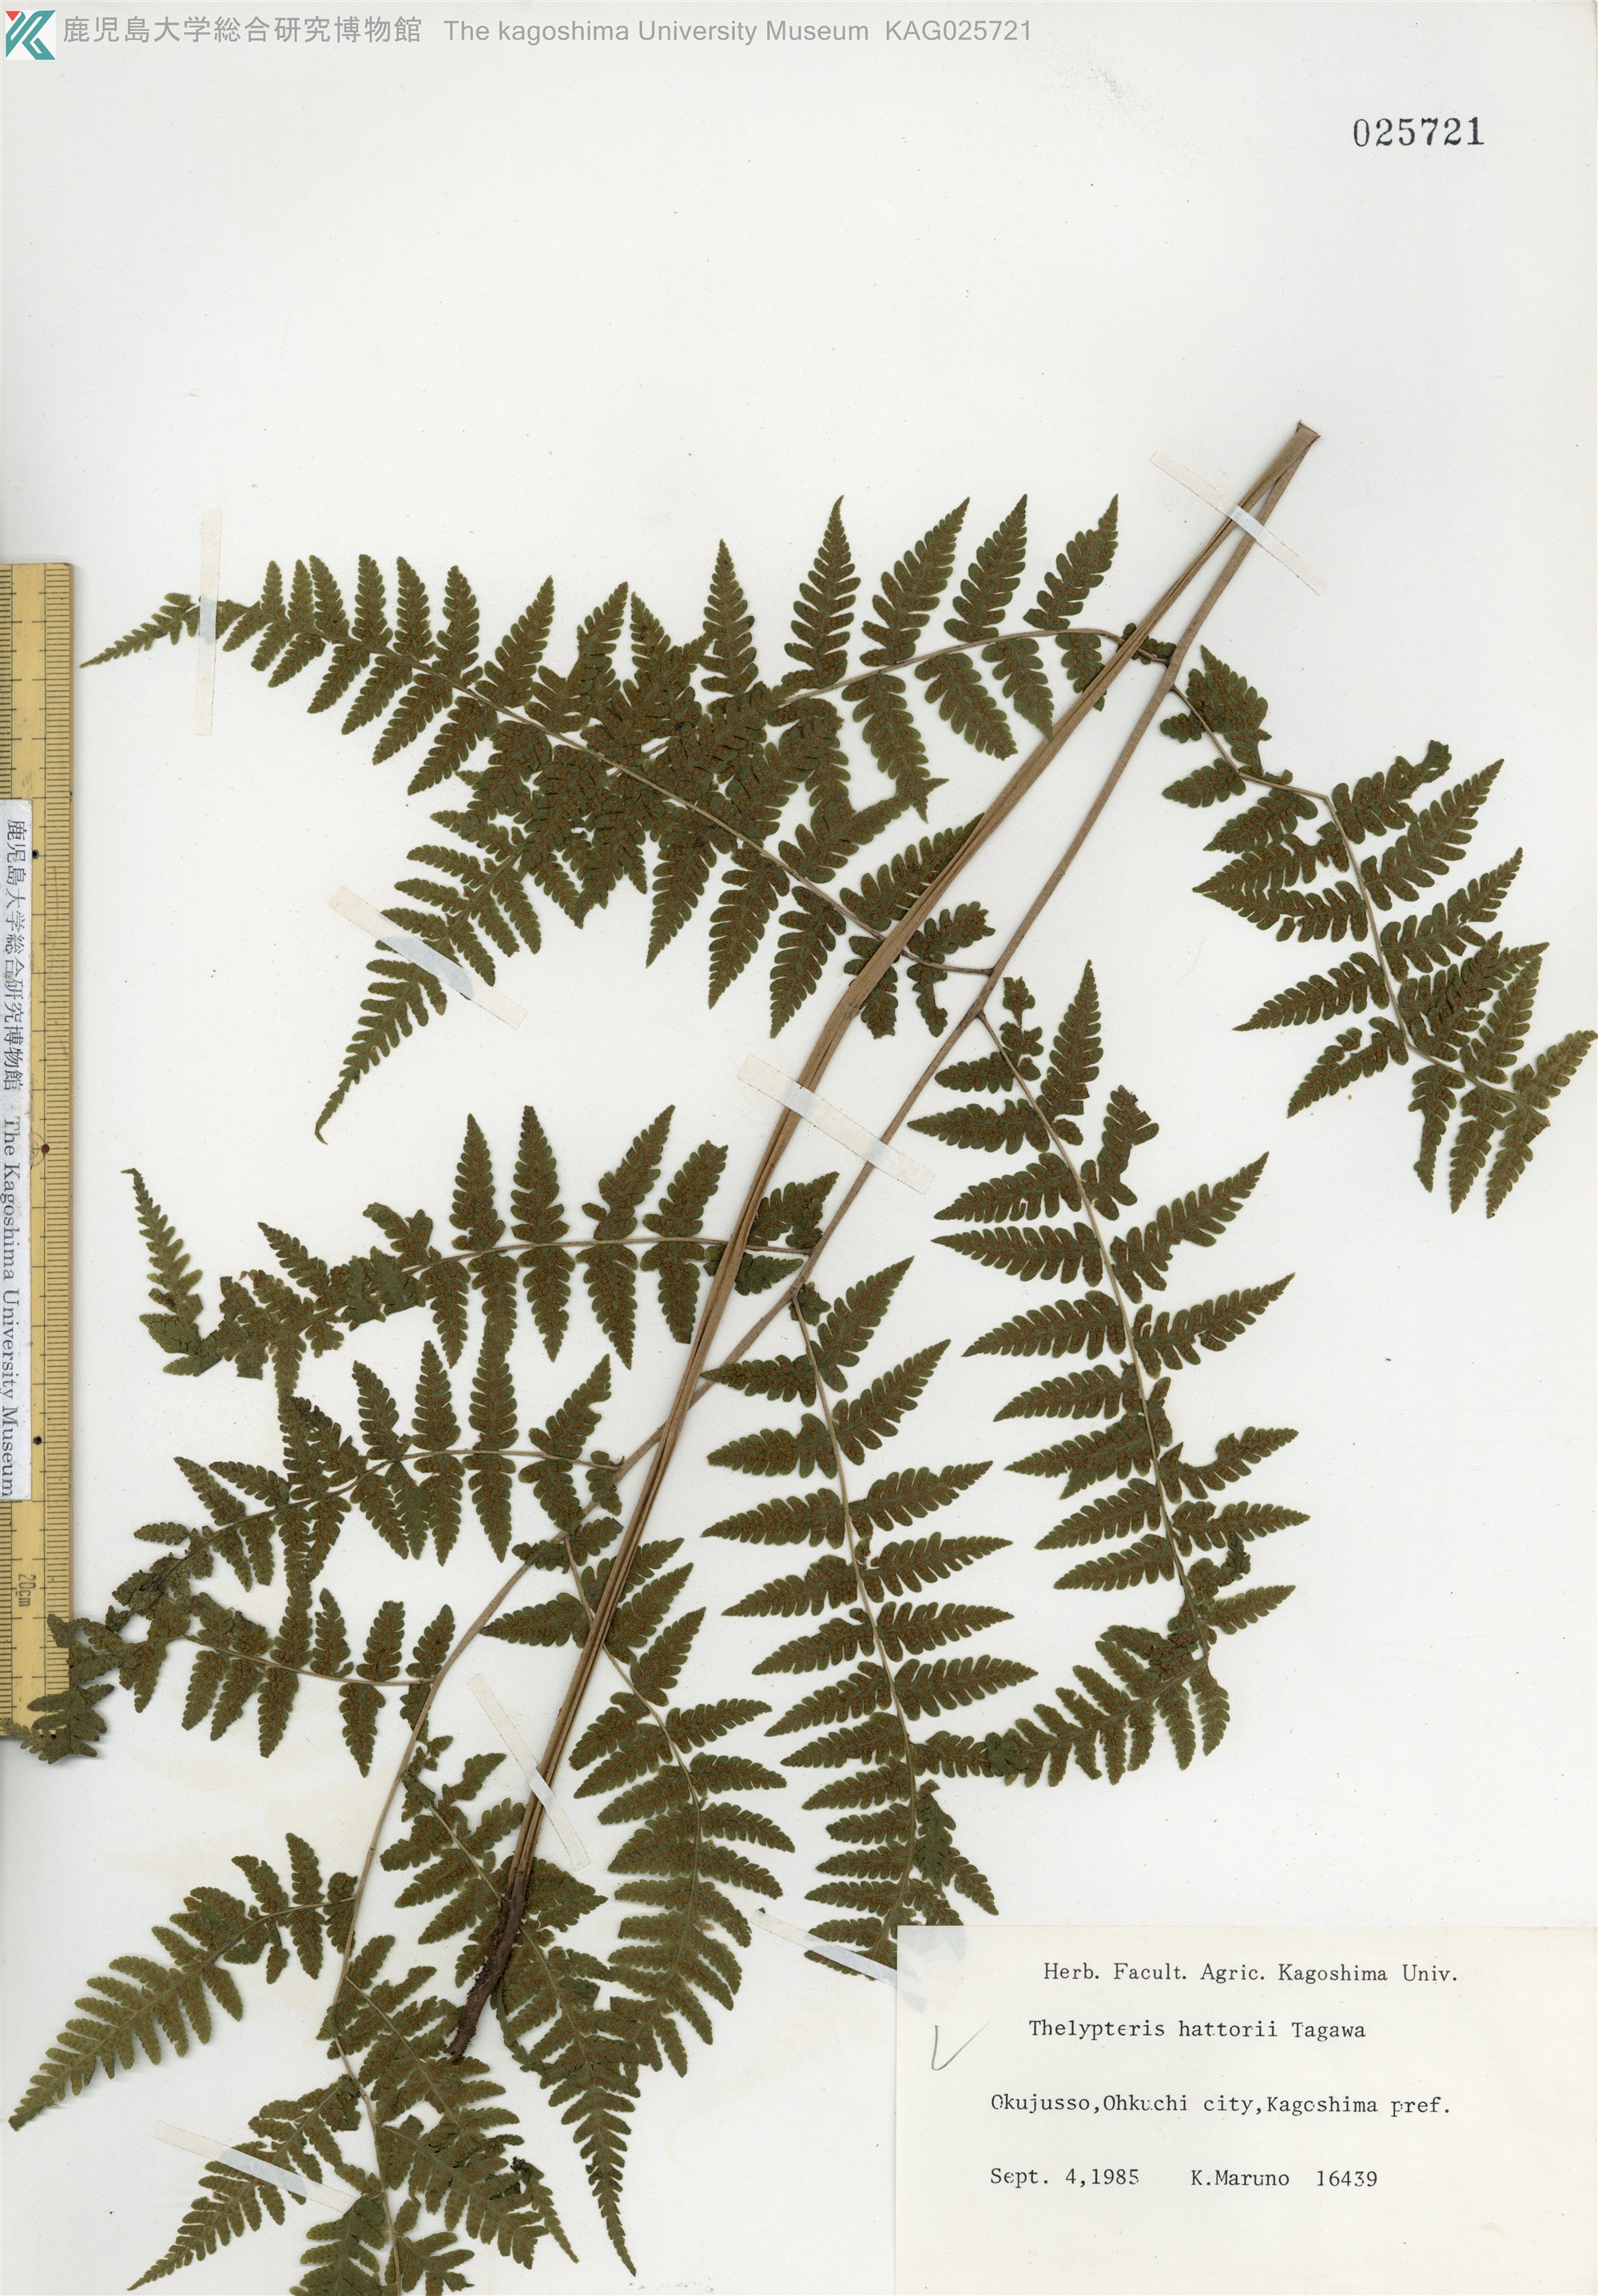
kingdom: Plantae
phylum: Tracheophyta
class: Polypodiopsida
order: Polypodiales
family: Thelypteridaceae
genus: Metathelypteris
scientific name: Metathelypteris hattori
